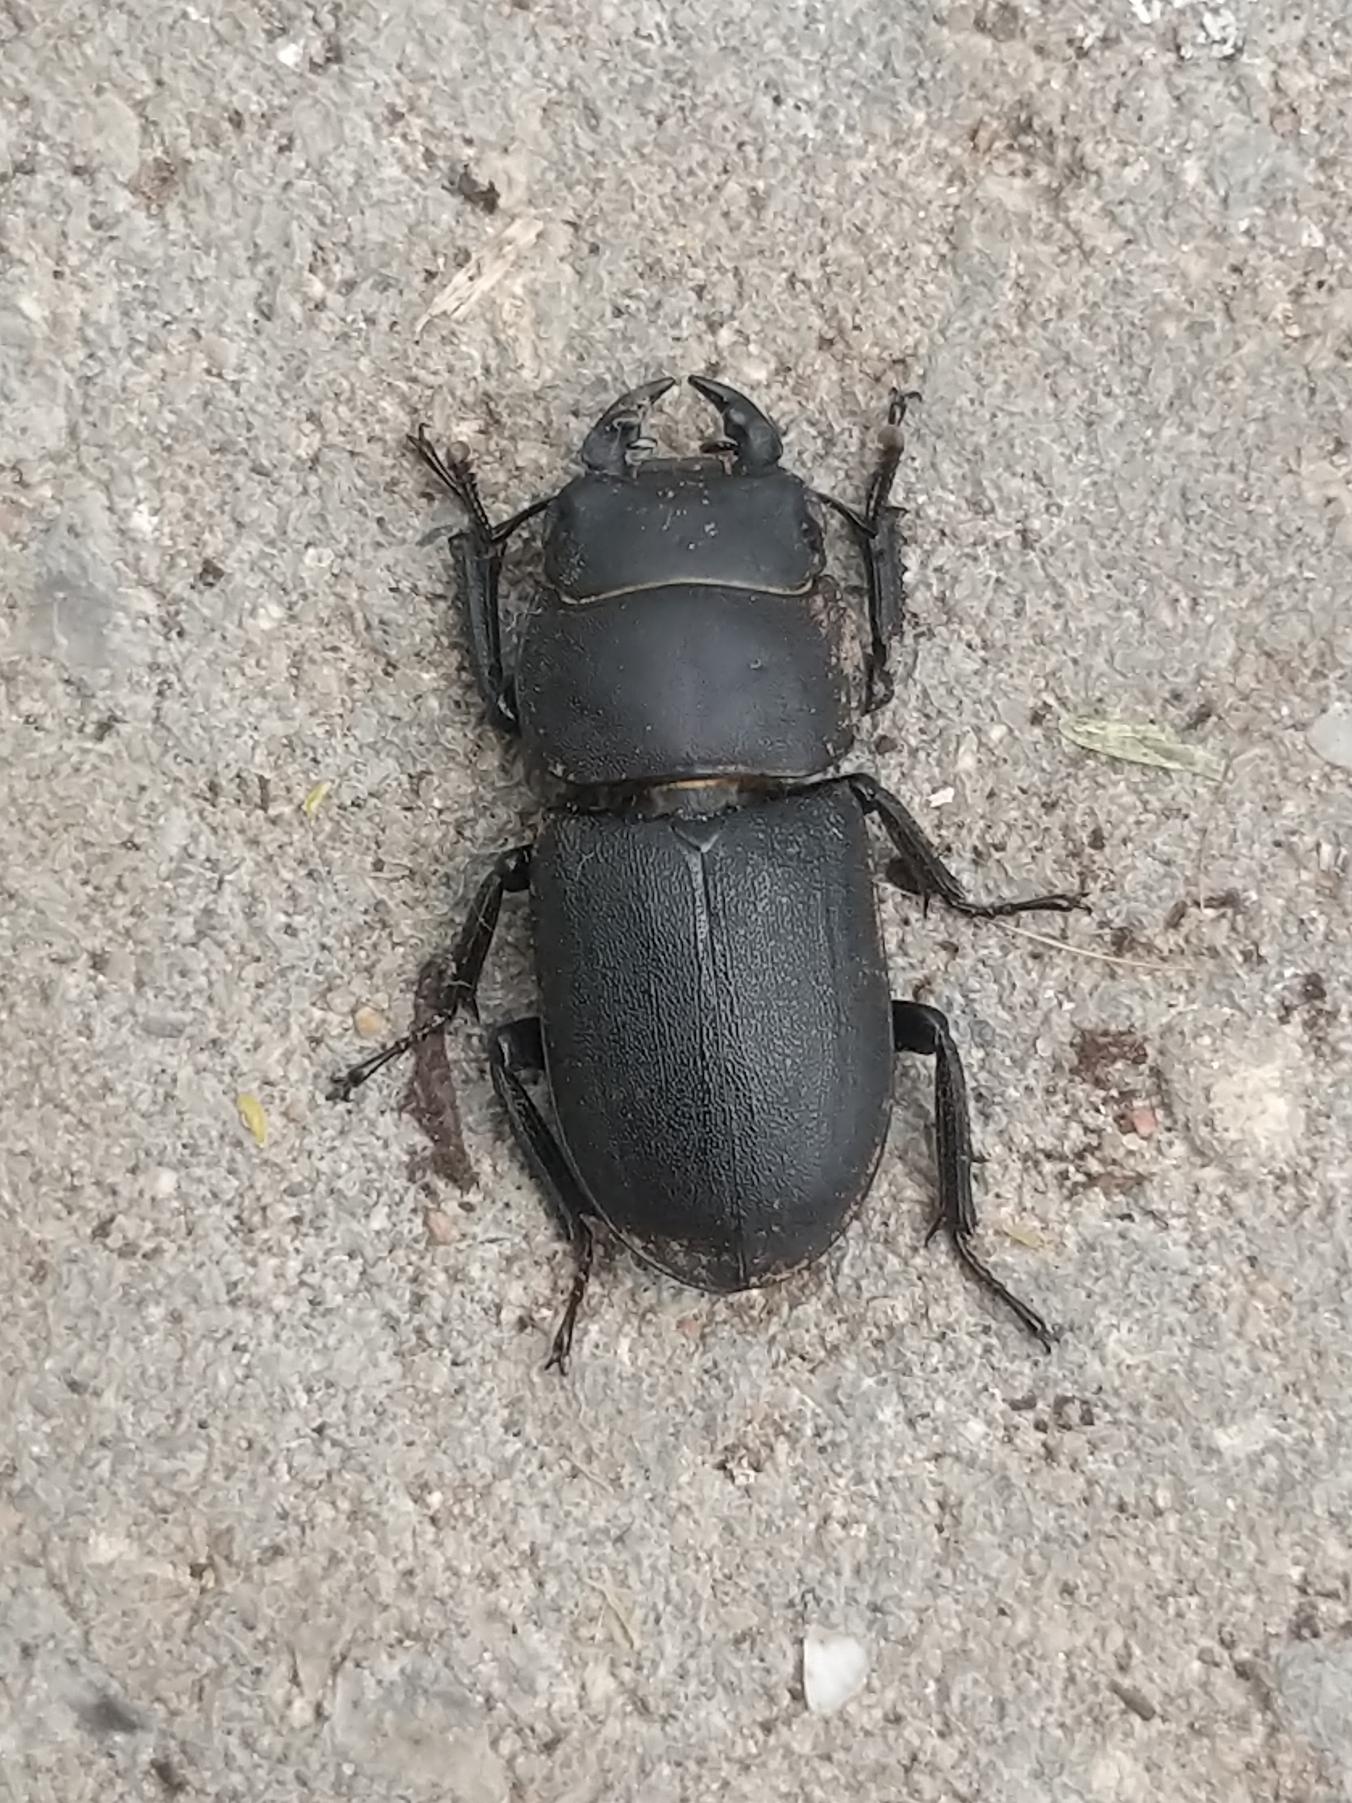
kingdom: Animalia
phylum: Arthropoda
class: Insecta
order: Coleoptera
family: Lucanidae
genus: Dorcus
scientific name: Dorcus parallelipipedus
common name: Bøghjort
